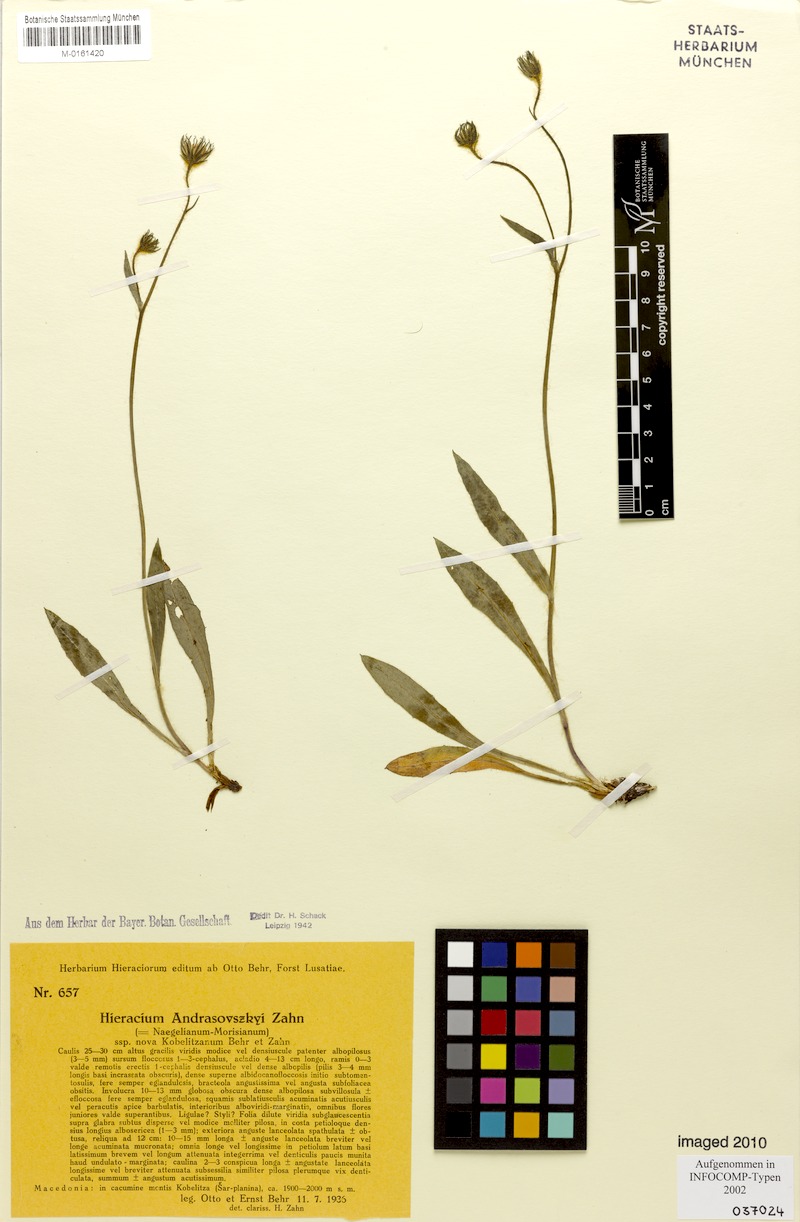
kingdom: Plantae
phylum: Tracheophyta
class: Magnoliopsida
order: Asterales
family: Asteraceae
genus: Hieracium
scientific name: Hieracium andrasovszkyi
